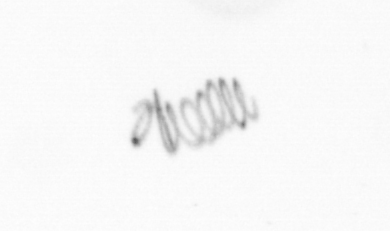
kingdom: Chromista
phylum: Ochrophyta
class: Bacillariophyceae
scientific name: Bacillariophyceae
